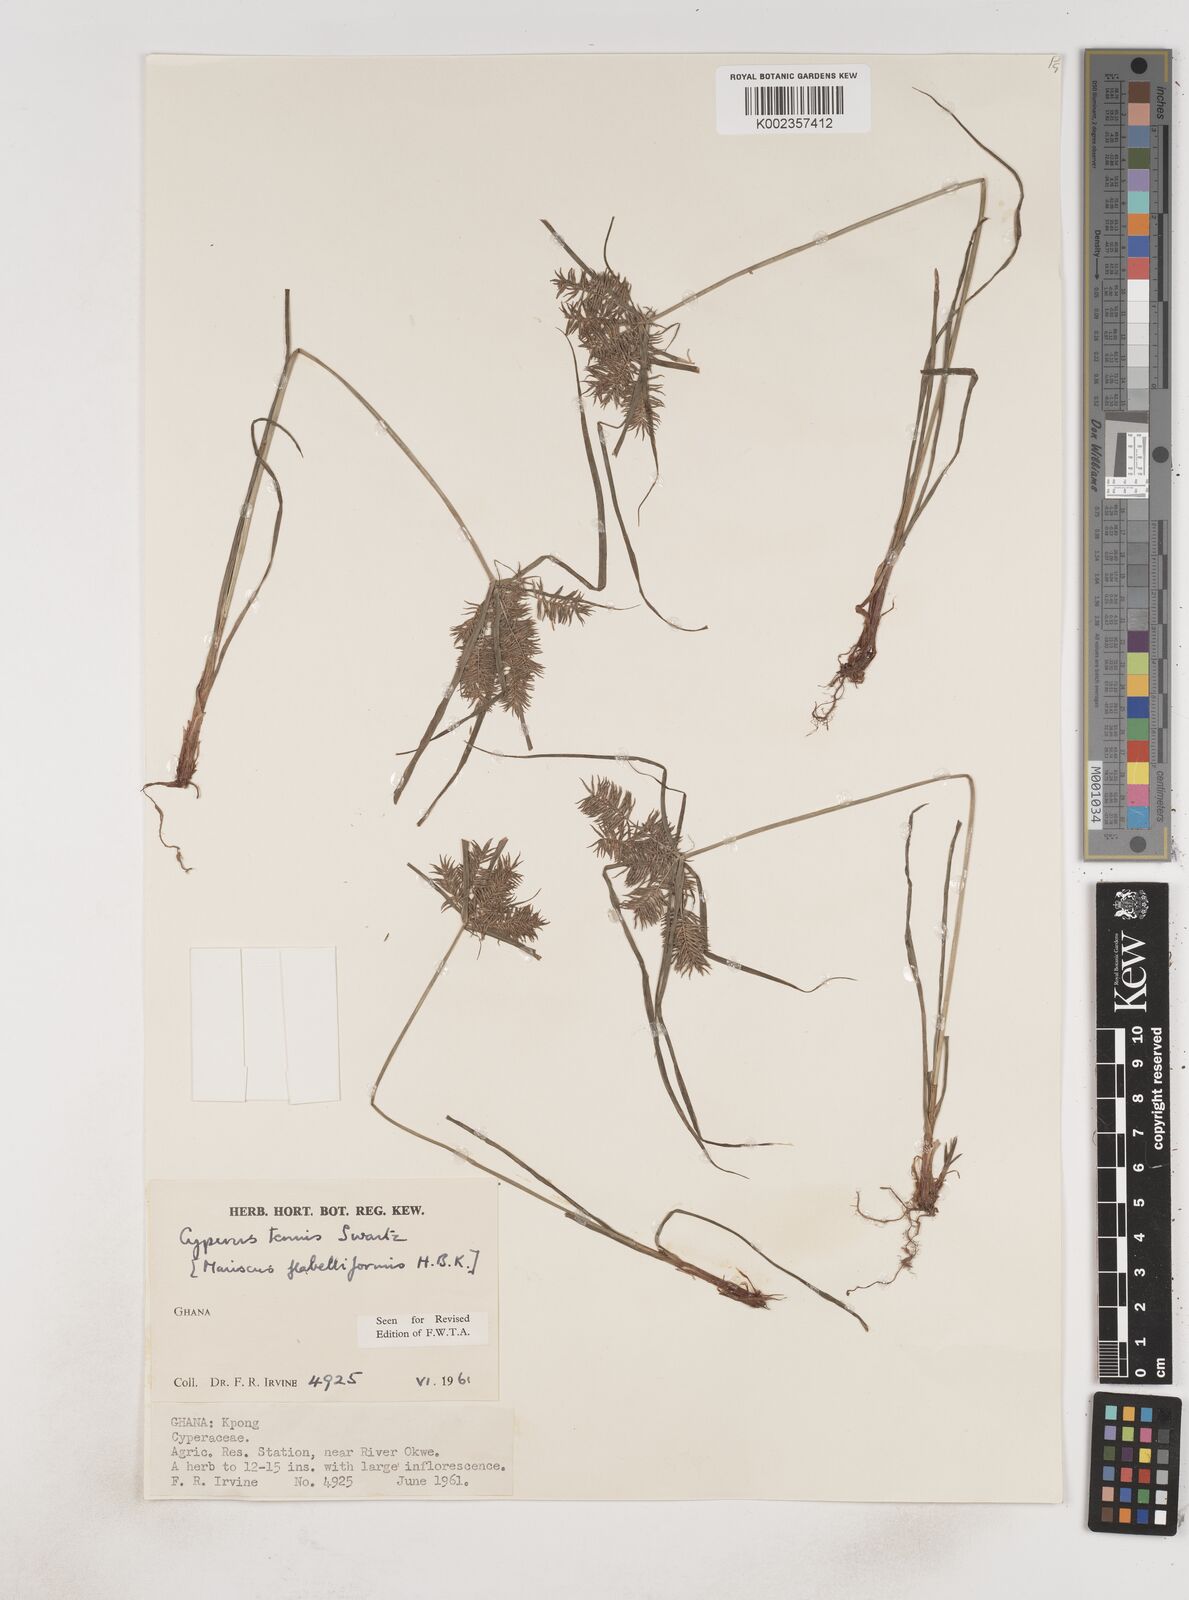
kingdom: Plantae
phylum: Tracheophyta
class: Liliopsida
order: Poales
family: Cyperaceae
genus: Cyperus
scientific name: Cyperus tenuis
